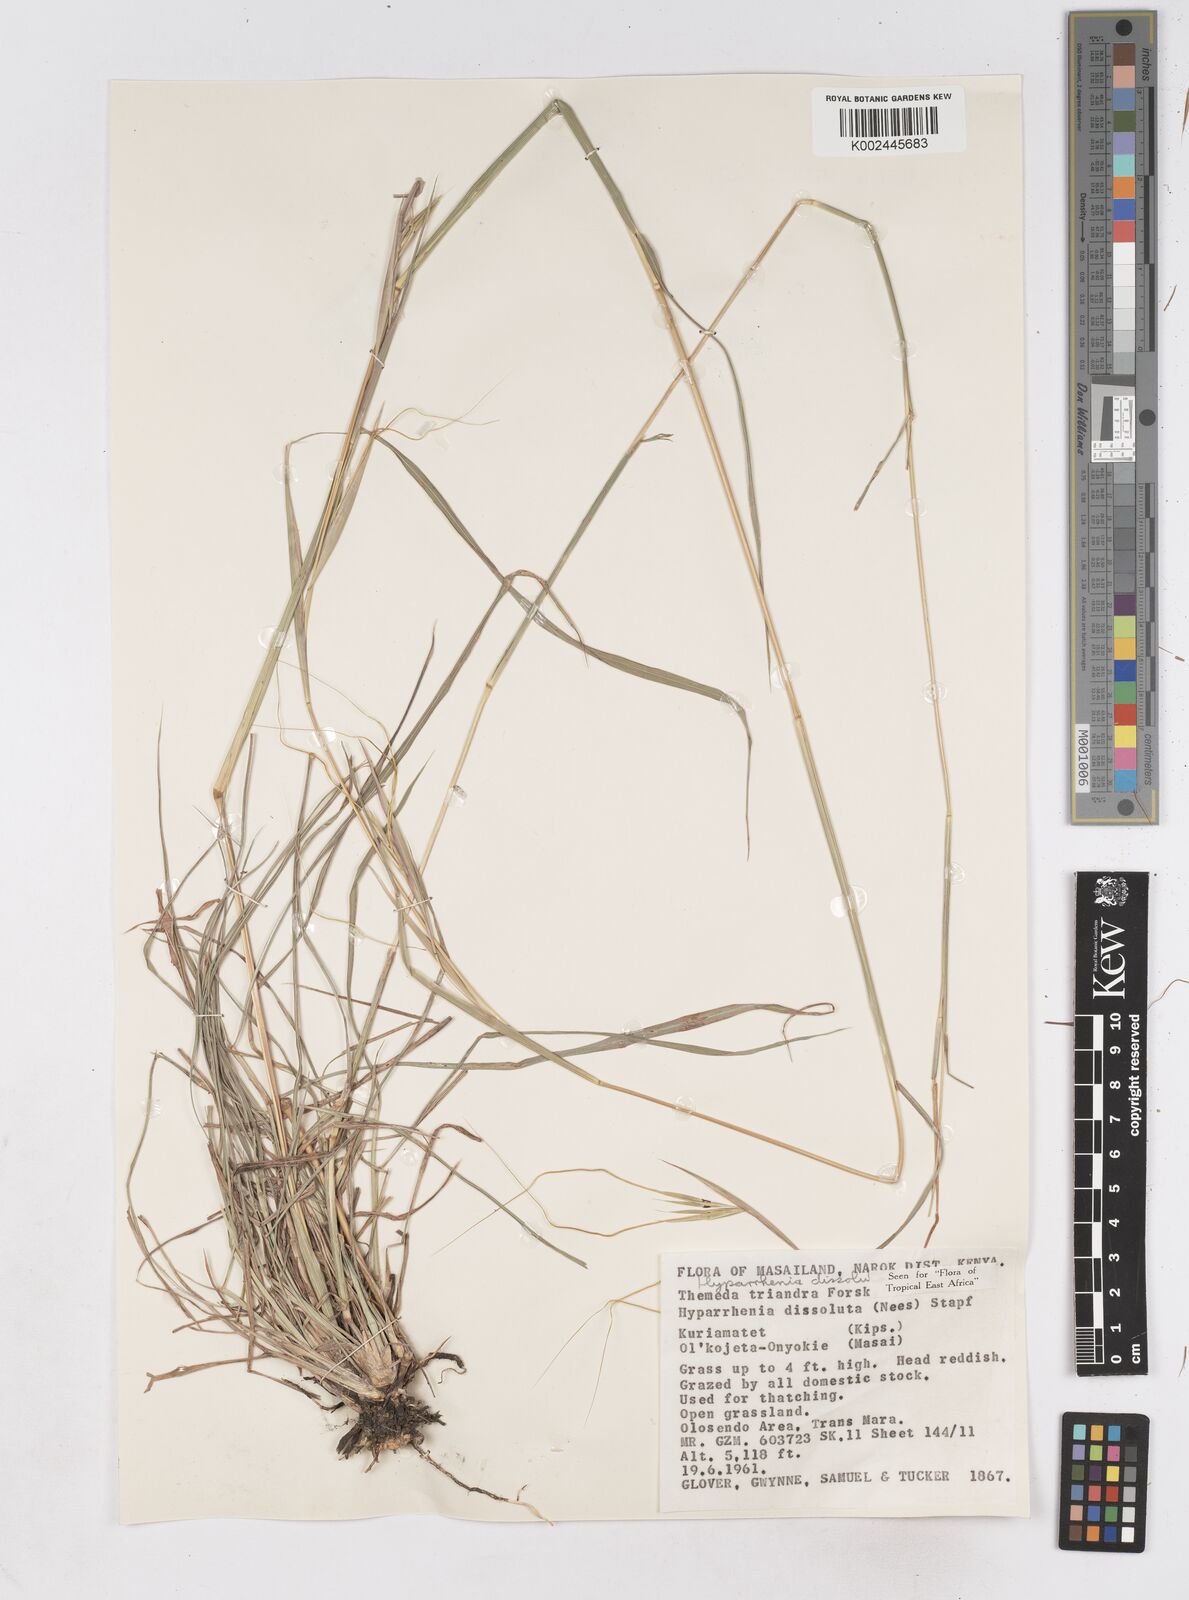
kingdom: Plantae
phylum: Tracheophyta
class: Liliopsida
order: Poales
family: Poaceae
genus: Hyperthelia
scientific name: Hyperthelia dissoluta
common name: Yellow thatching grass
